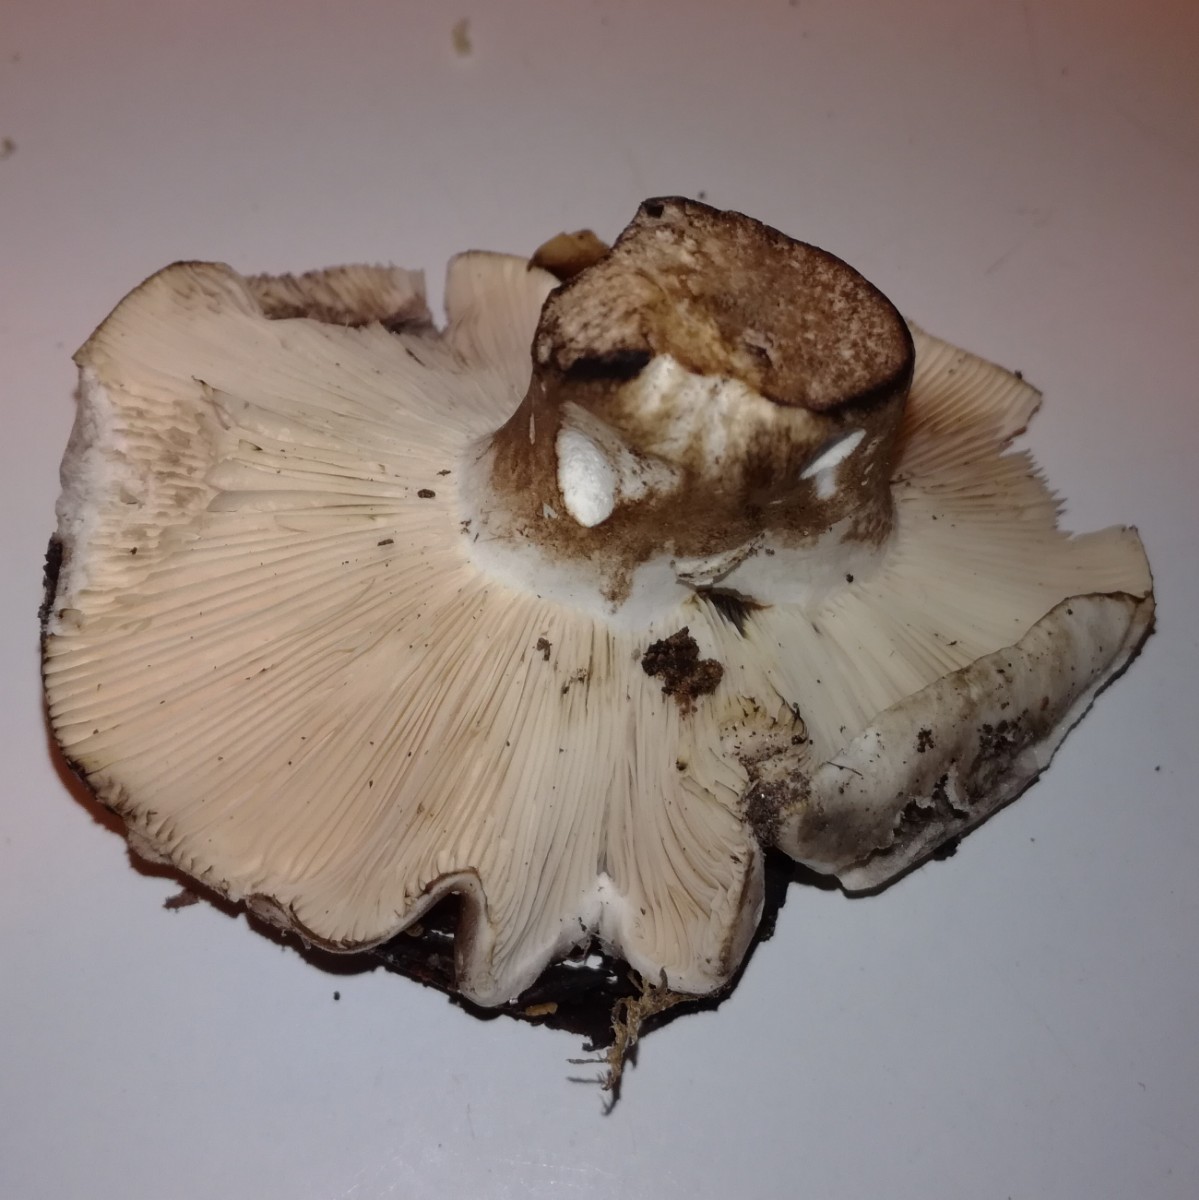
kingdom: Fungi
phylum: Basidiomycota
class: Agaricomycetes
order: Russulales
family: Russulaceae
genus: Russula
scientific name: Russula acrifolia
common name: skarpbladet skørhat
